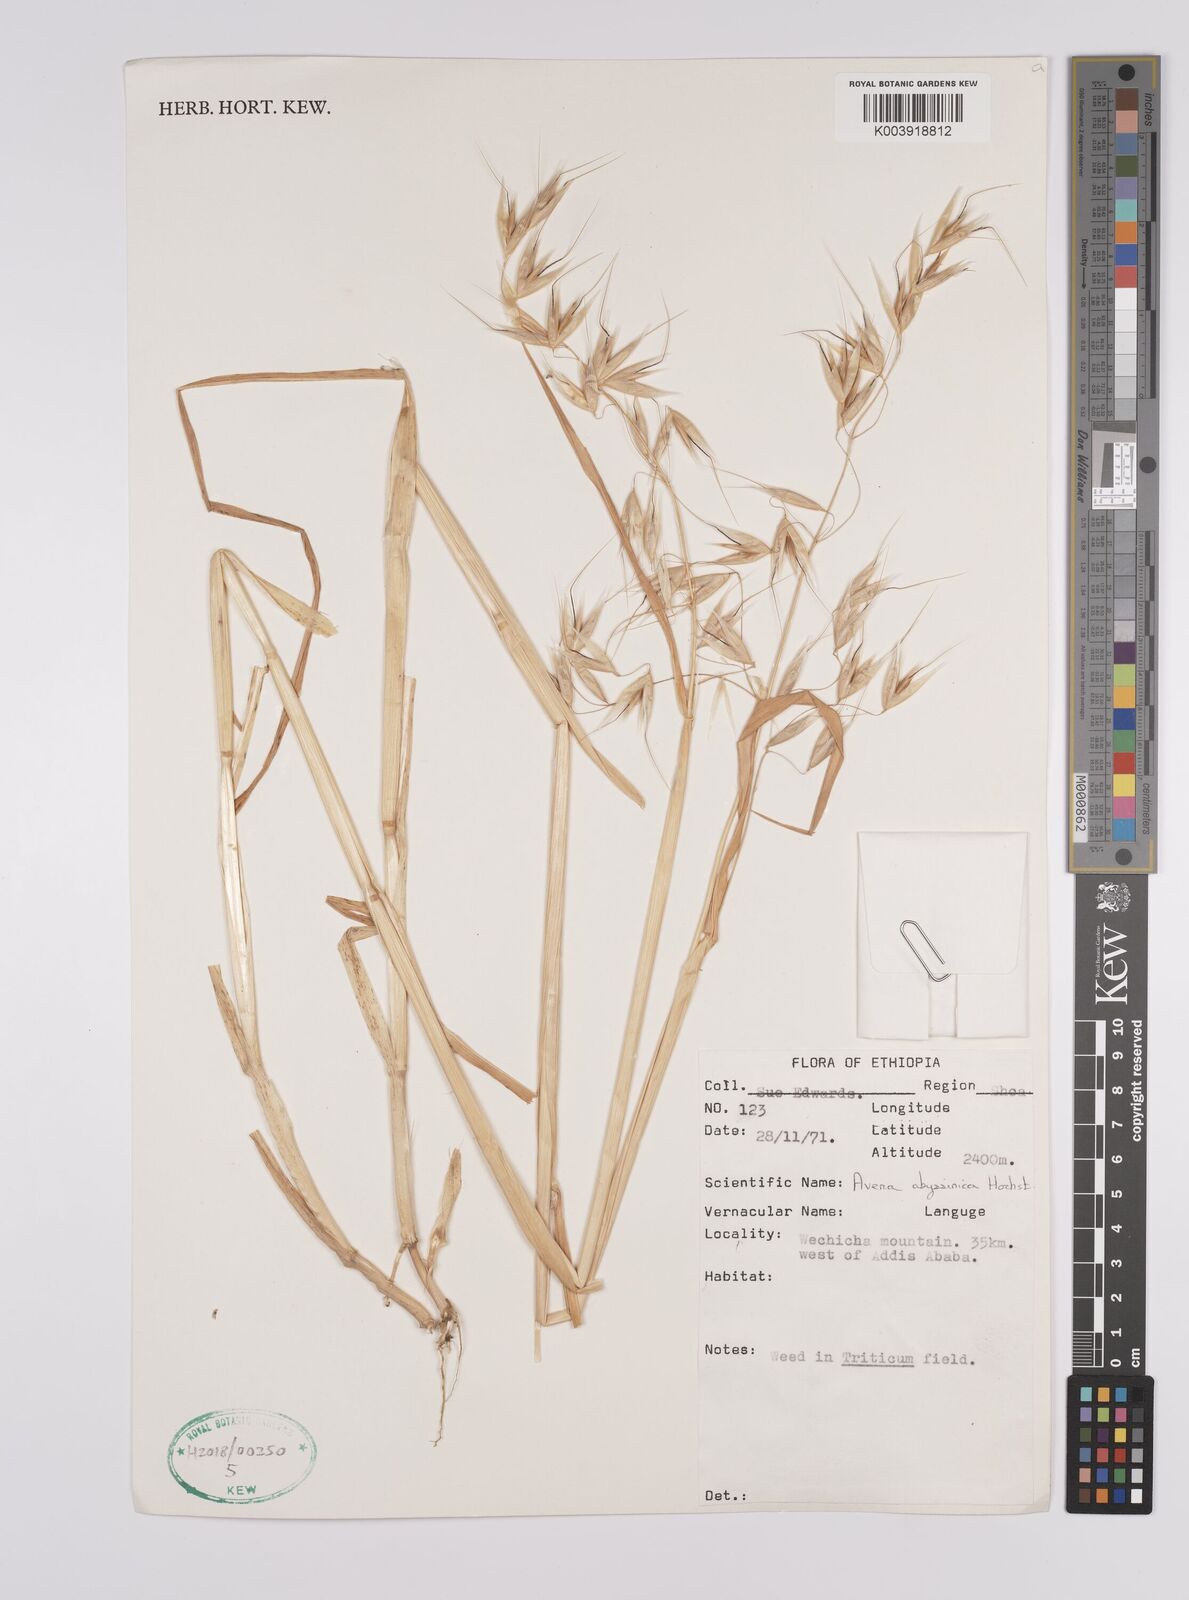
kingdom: Plantae
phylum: Tracheophyta
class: Liliopsida
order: Poales
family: Poaceae
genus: Avena
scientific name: Avena abyssinica
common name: Ethiopian oat
